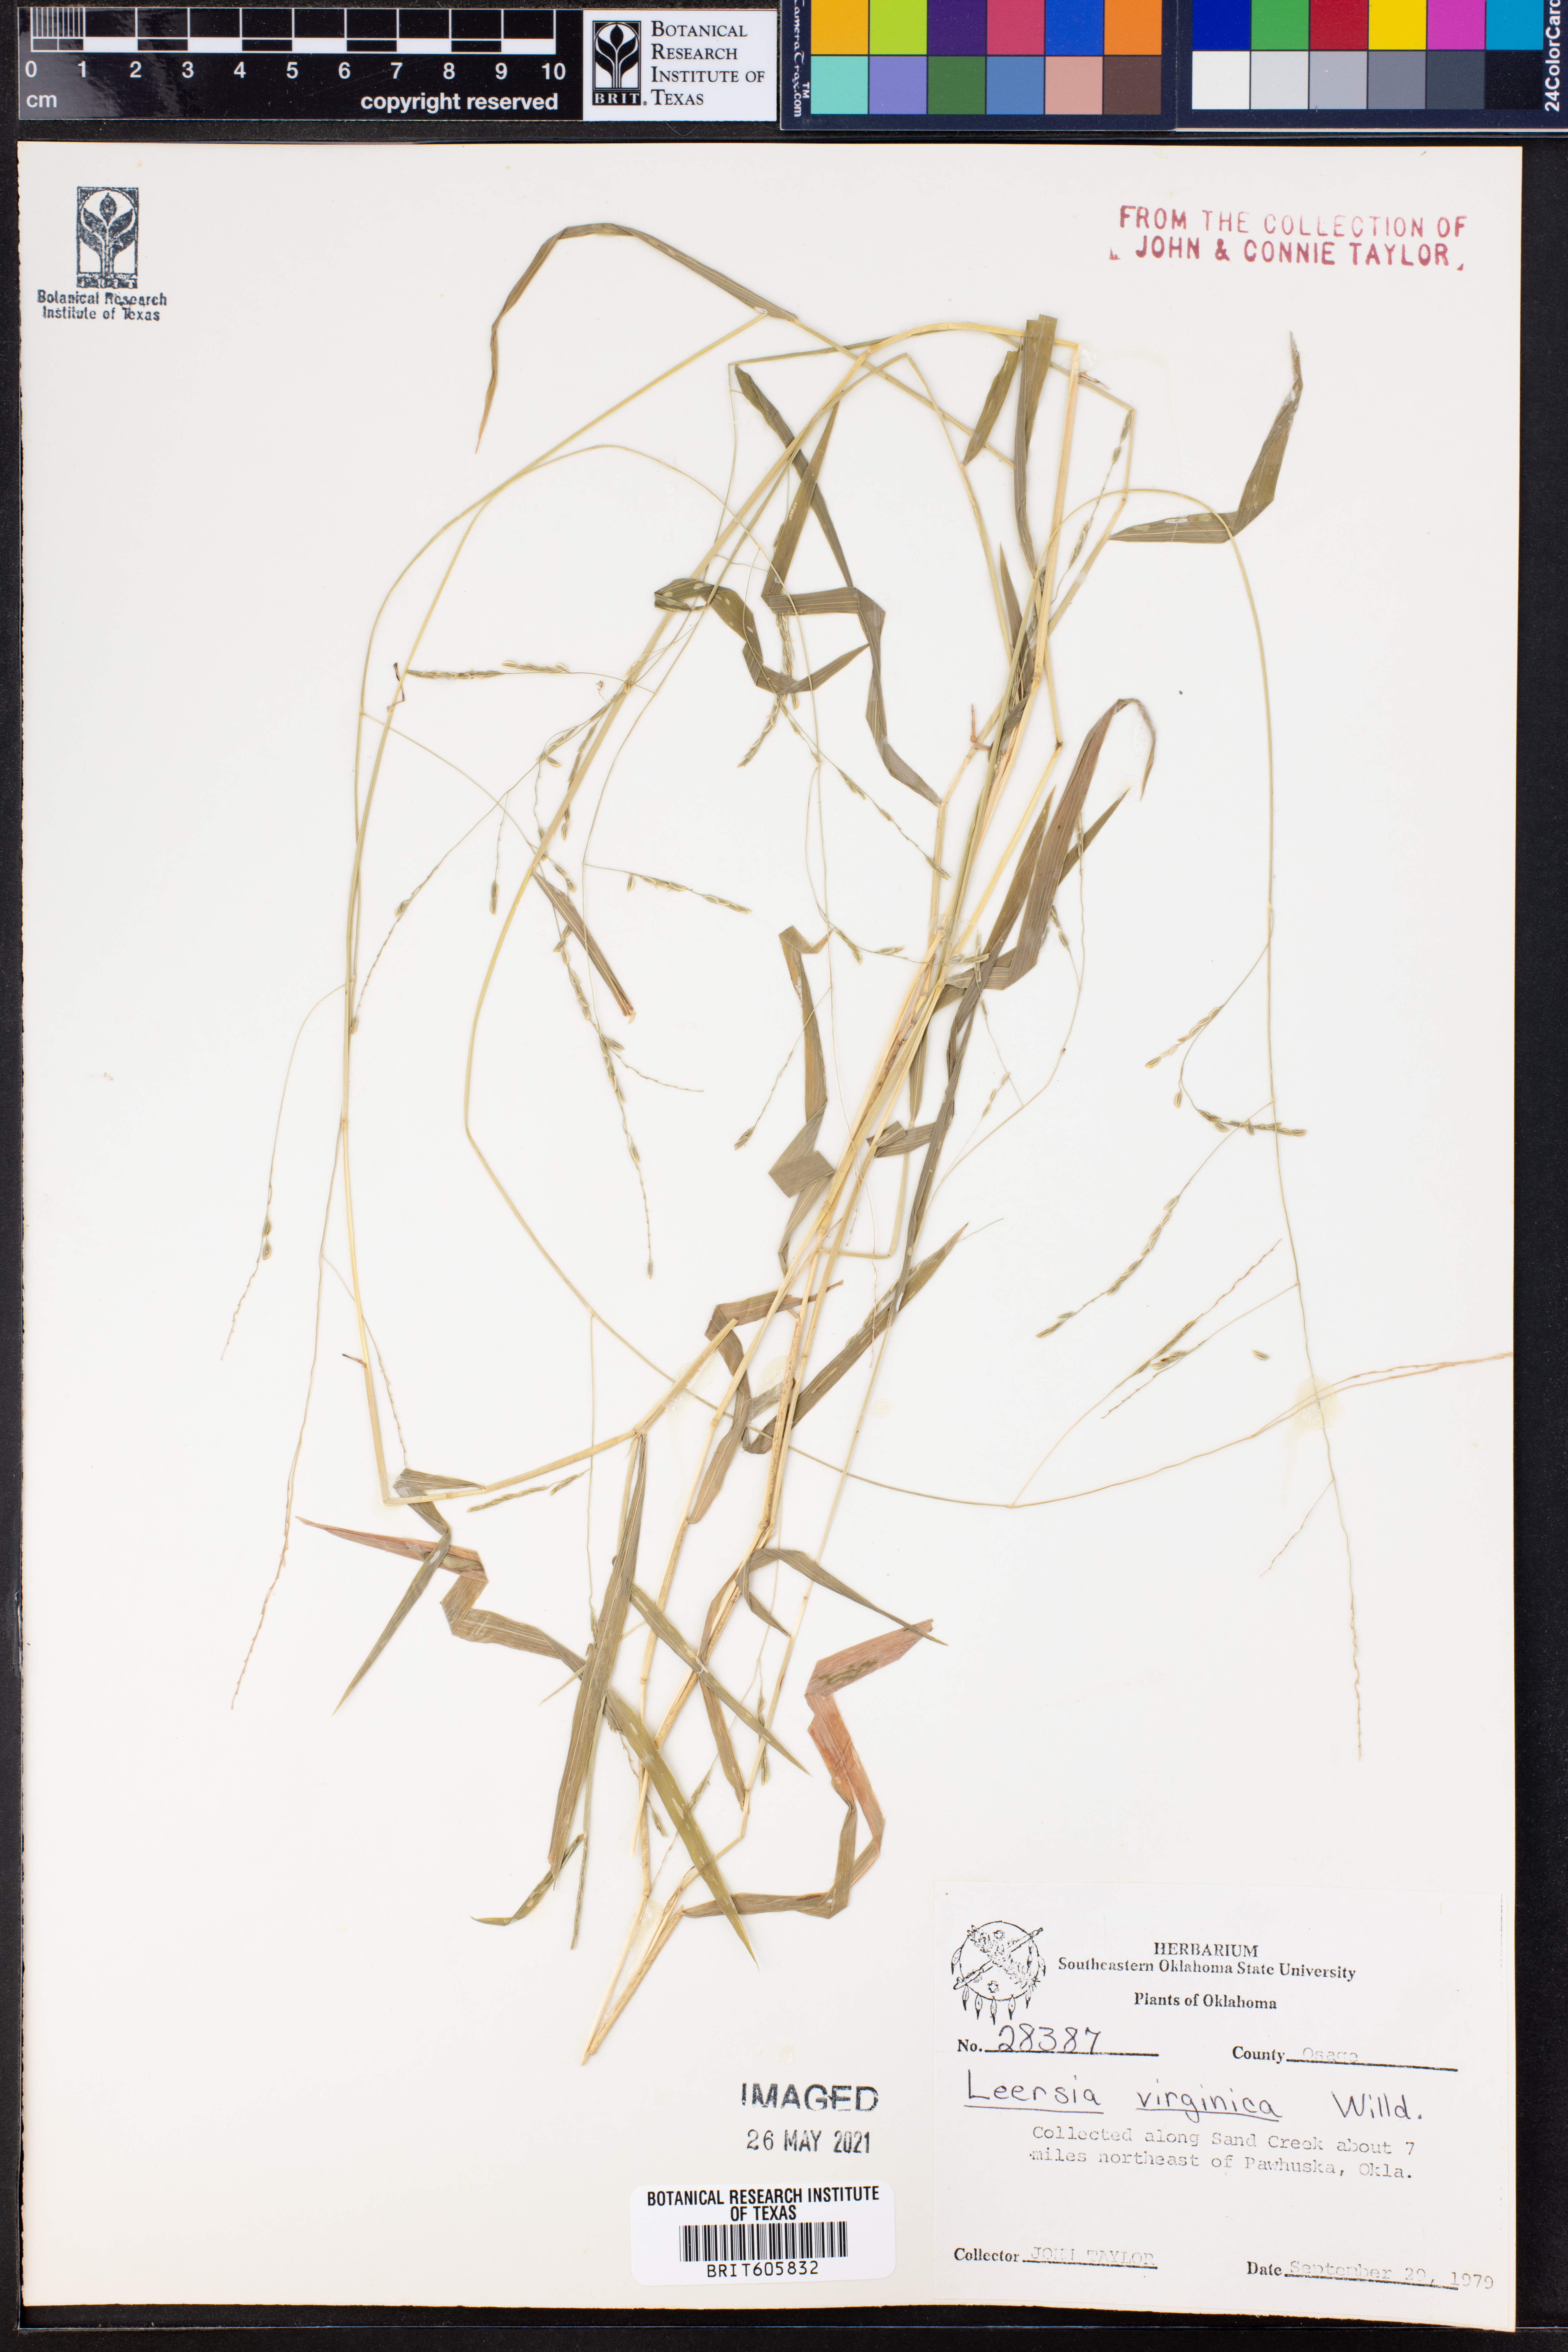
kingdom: Plantae
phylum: Tracheophyta
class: Liliopsida
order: Poales
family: Poaceae
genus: Leersia
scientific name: Leersia virginica
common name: White cutgrass
